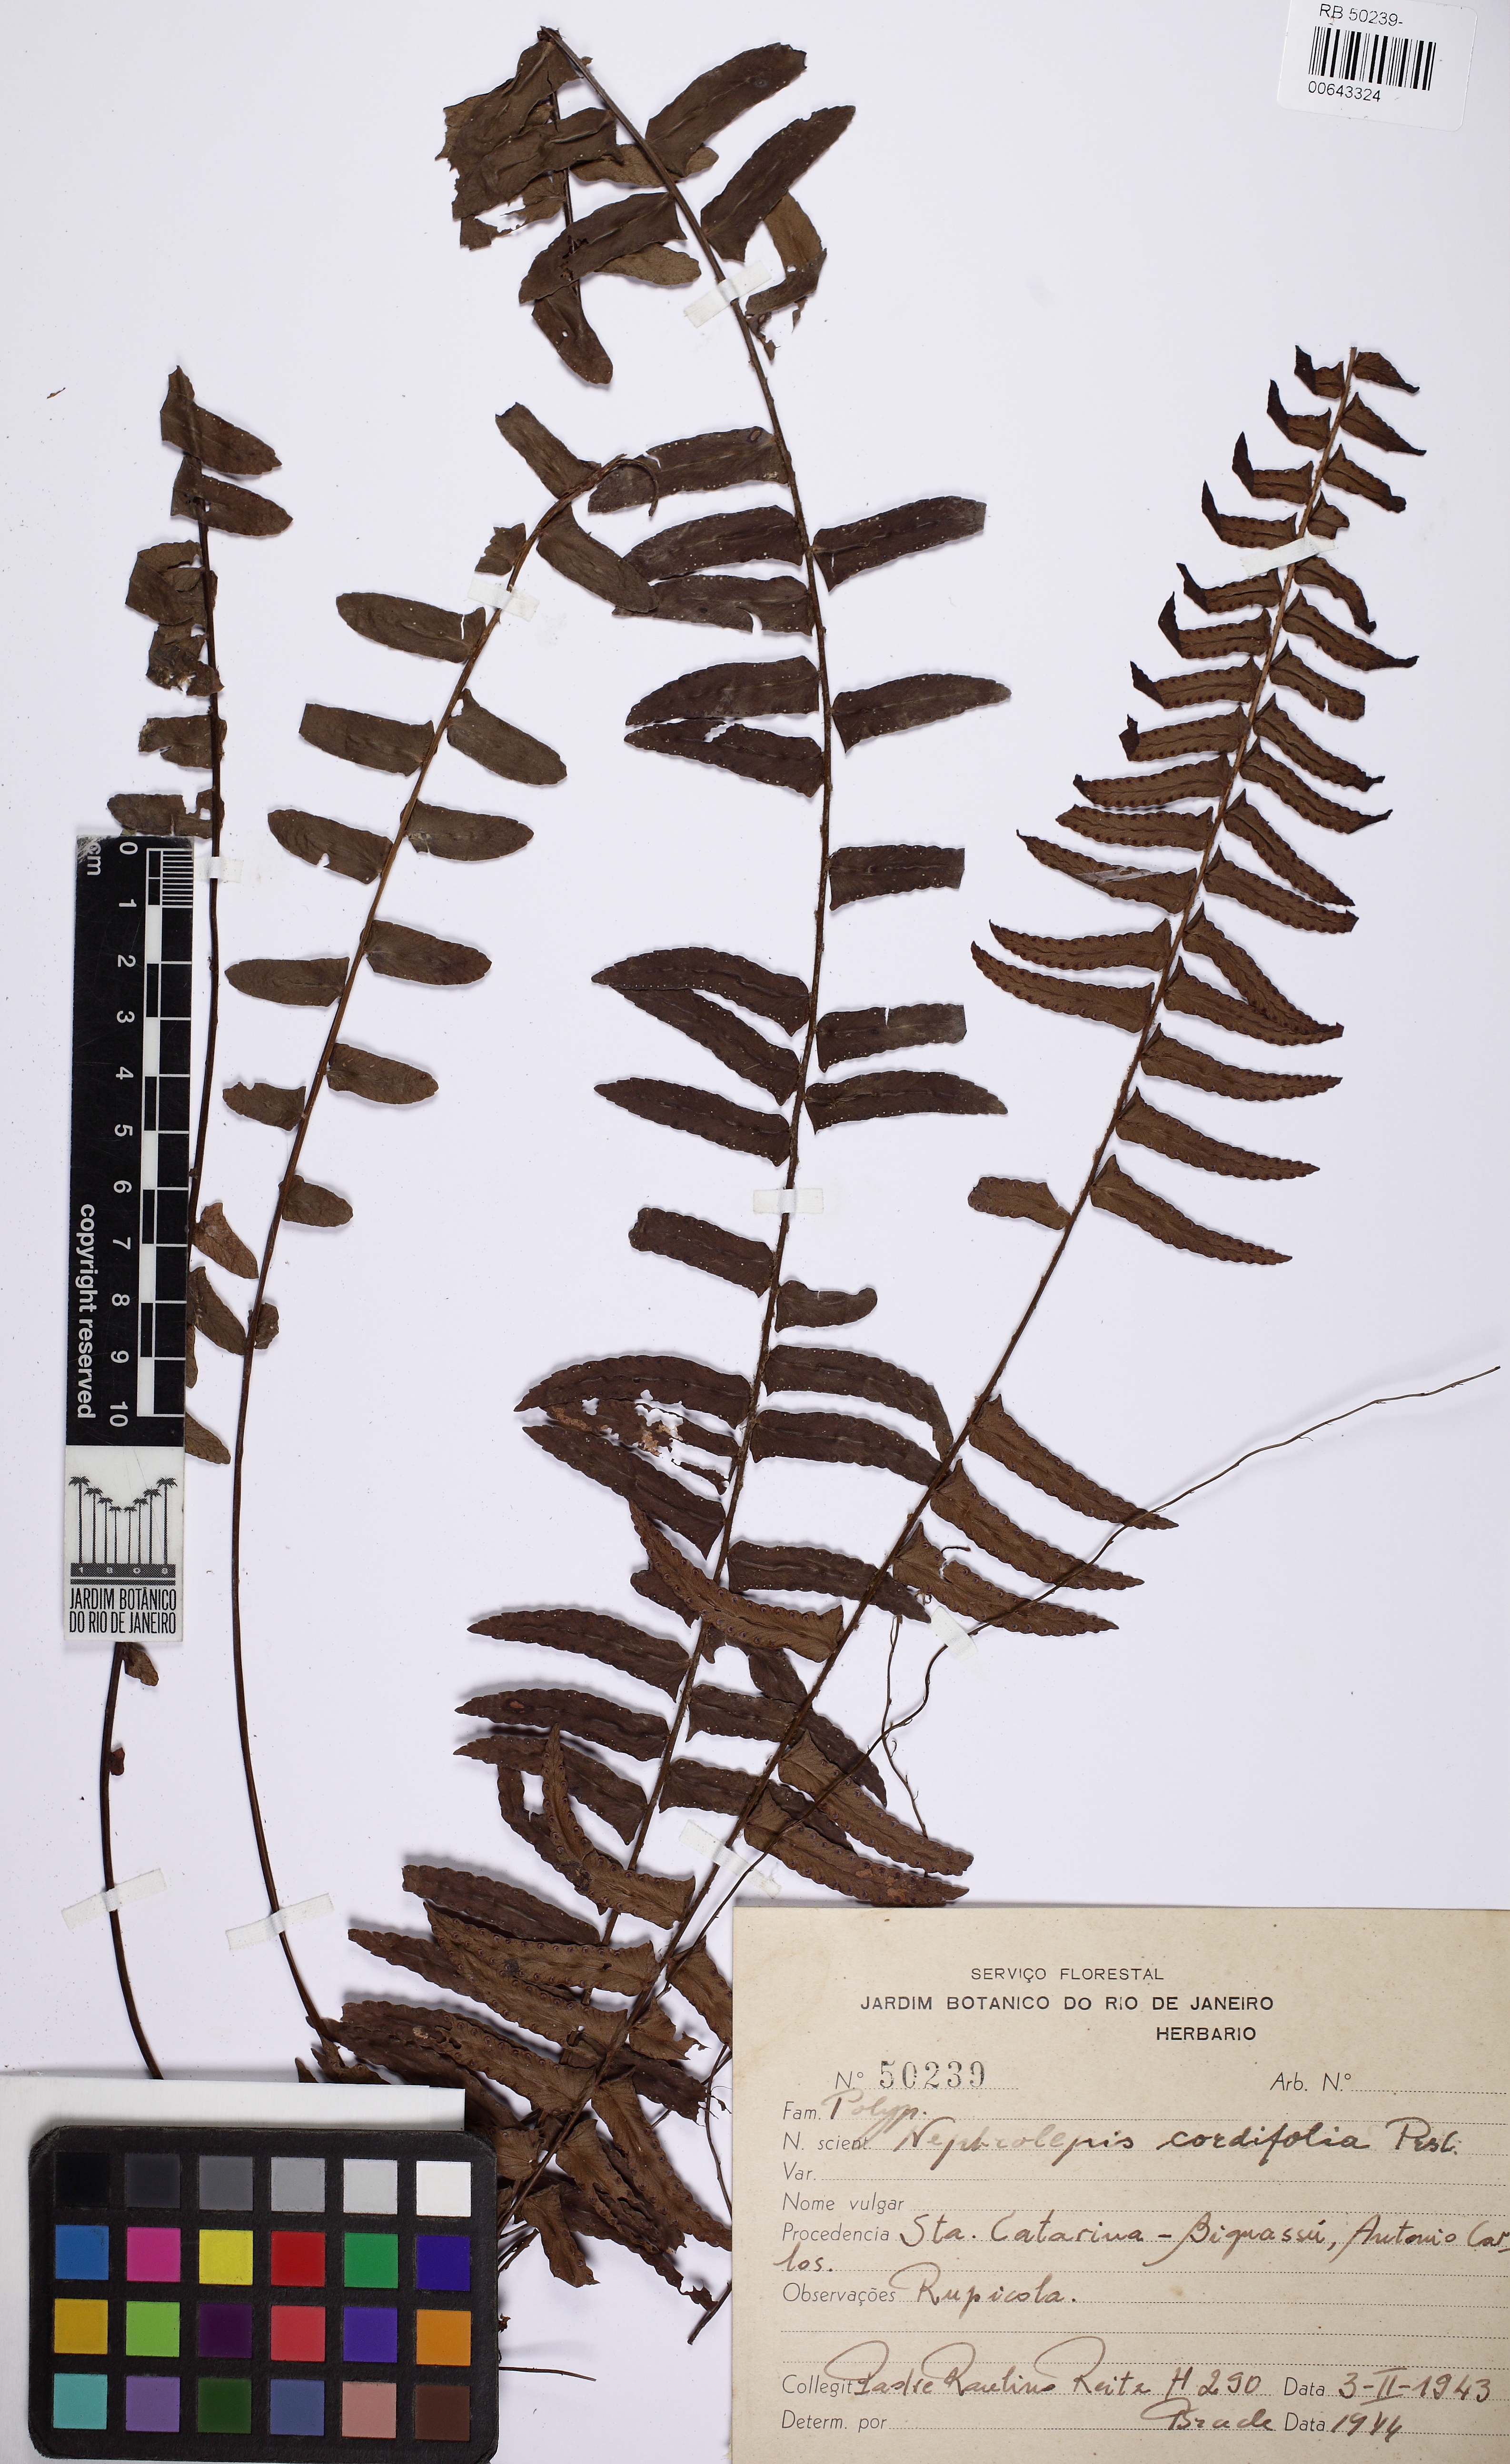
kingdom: Plantae
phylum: Tracheophyta
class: Polypodiopsida
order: Polypodiales
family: Nephrolepidaceae
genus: Nephrolepis
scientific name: Nephrolepis cordifolia
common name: Narrow swordfern
